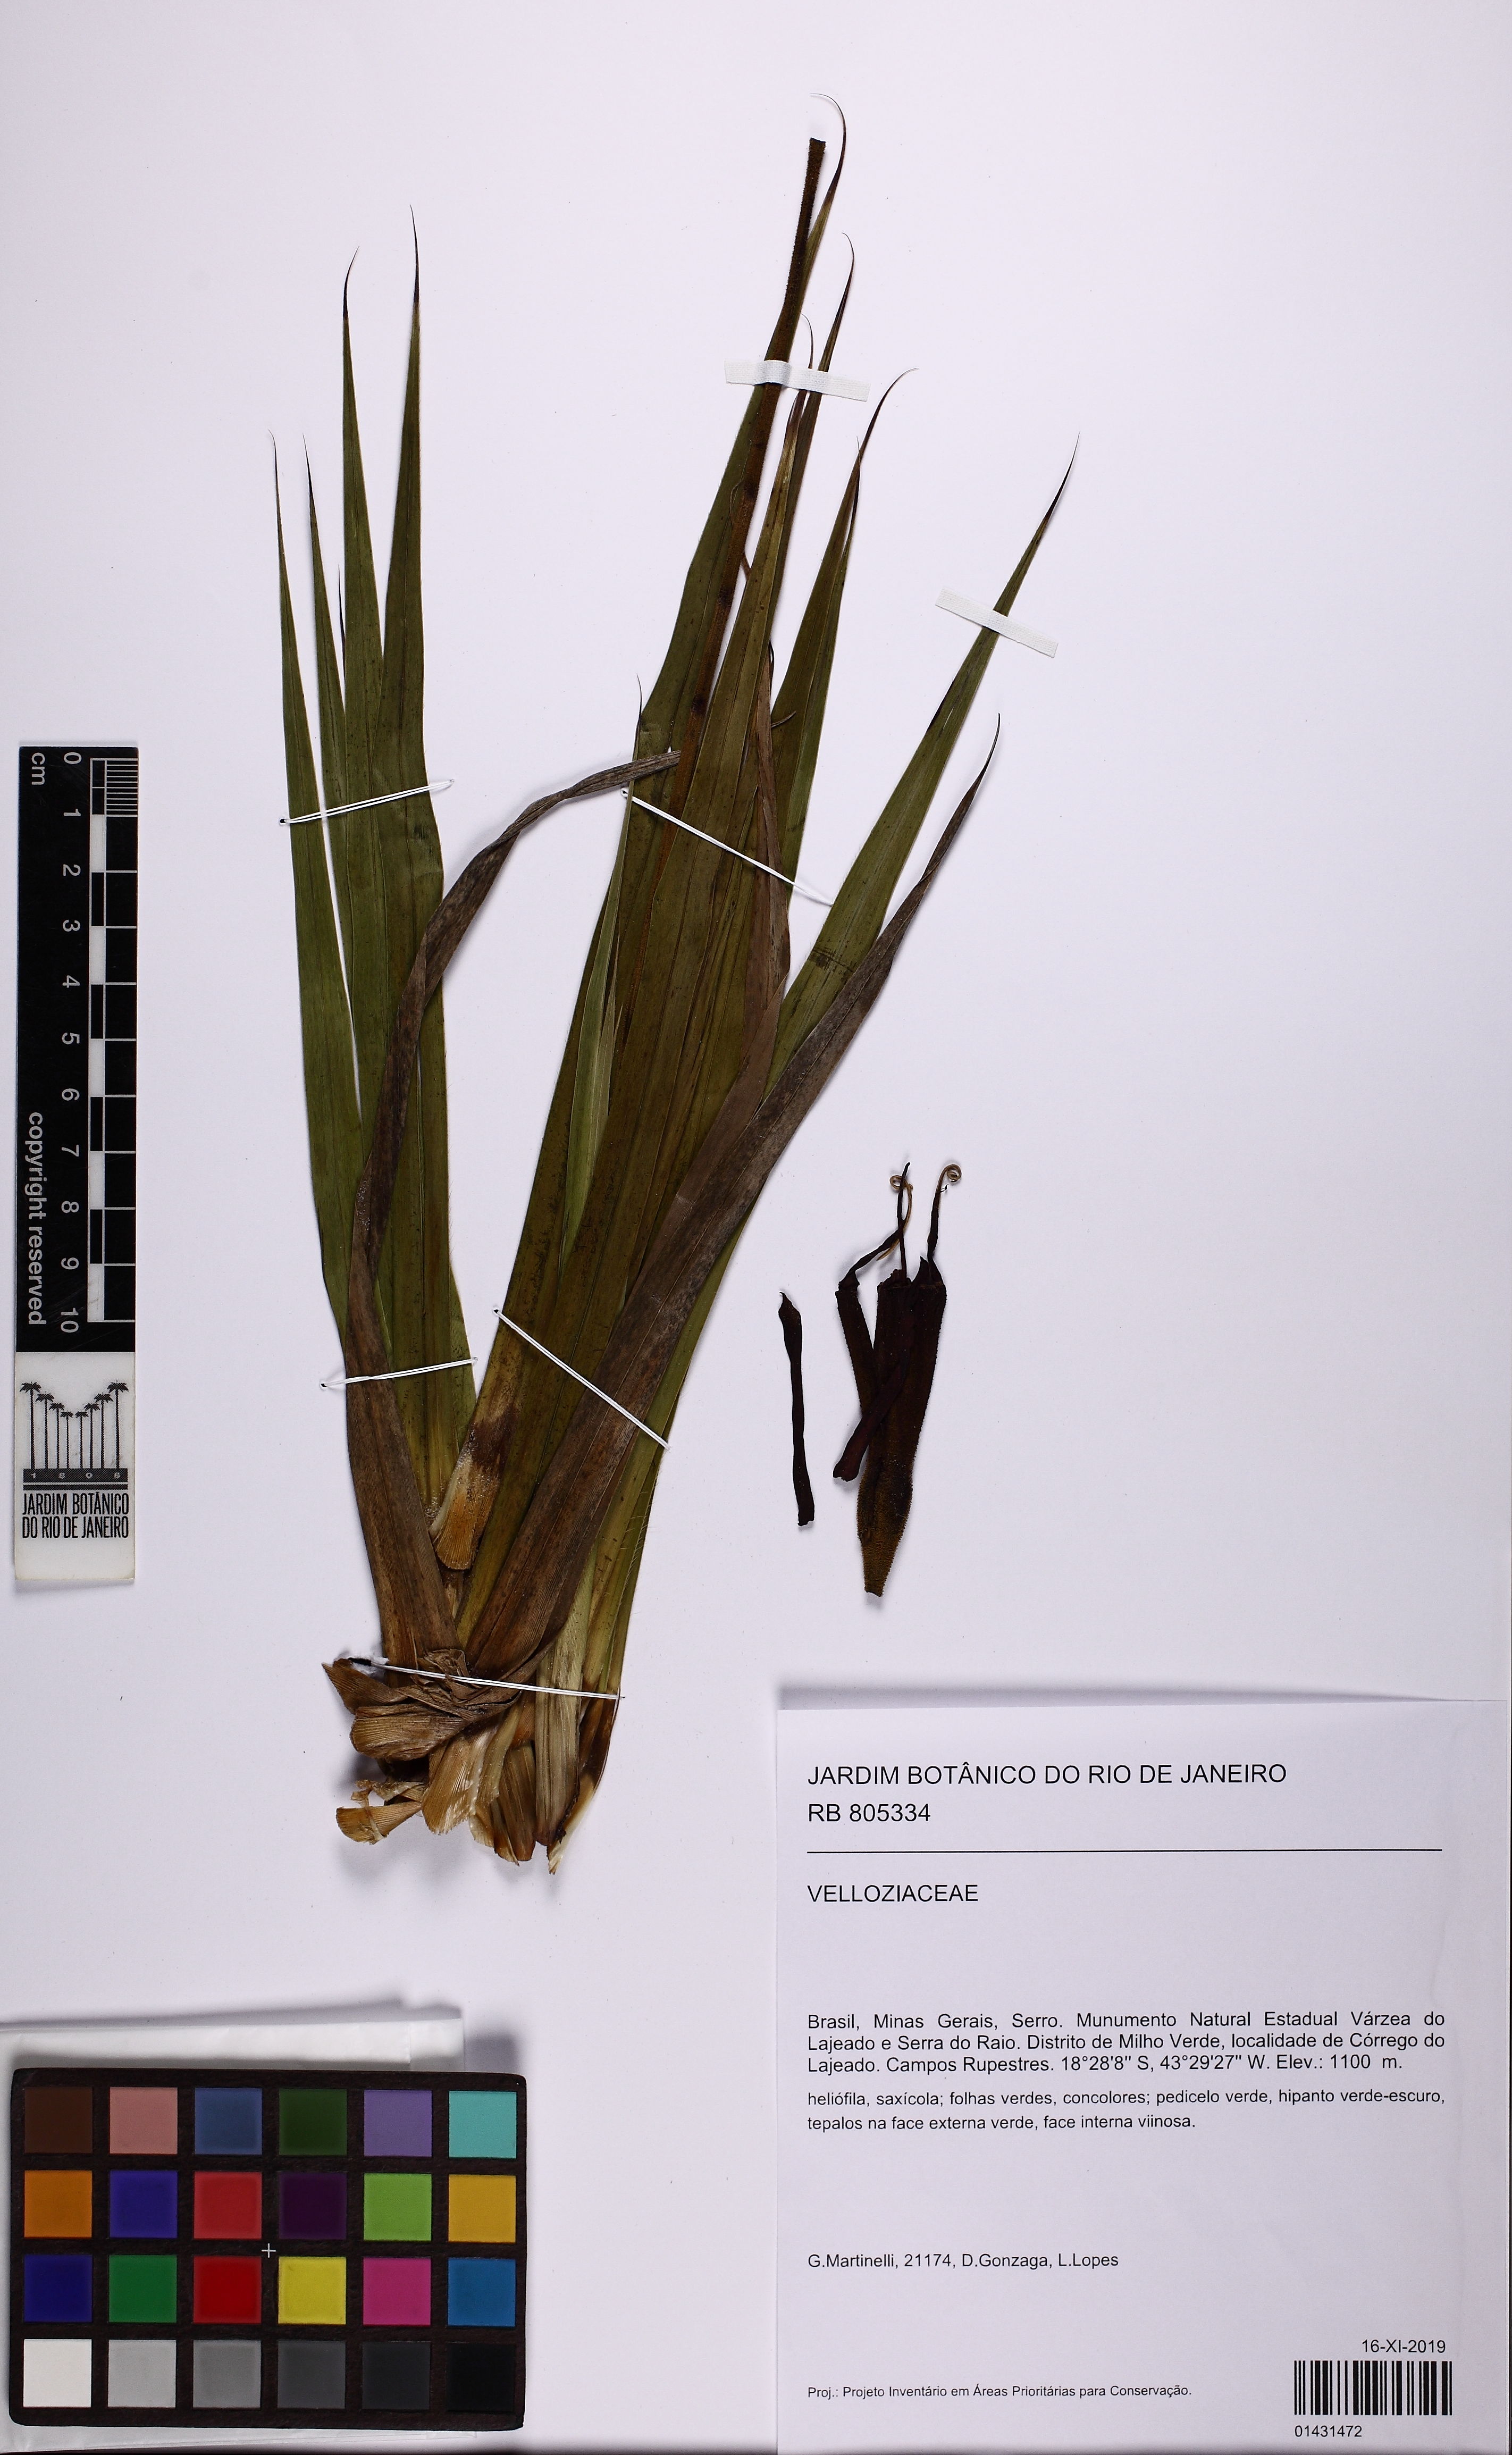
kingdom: Plantae
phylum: Tracheophyta
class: Liliopsida
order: Pandanales
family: Velloziaceae
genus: Barbacenia
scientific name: Barbacenia conicostigma
